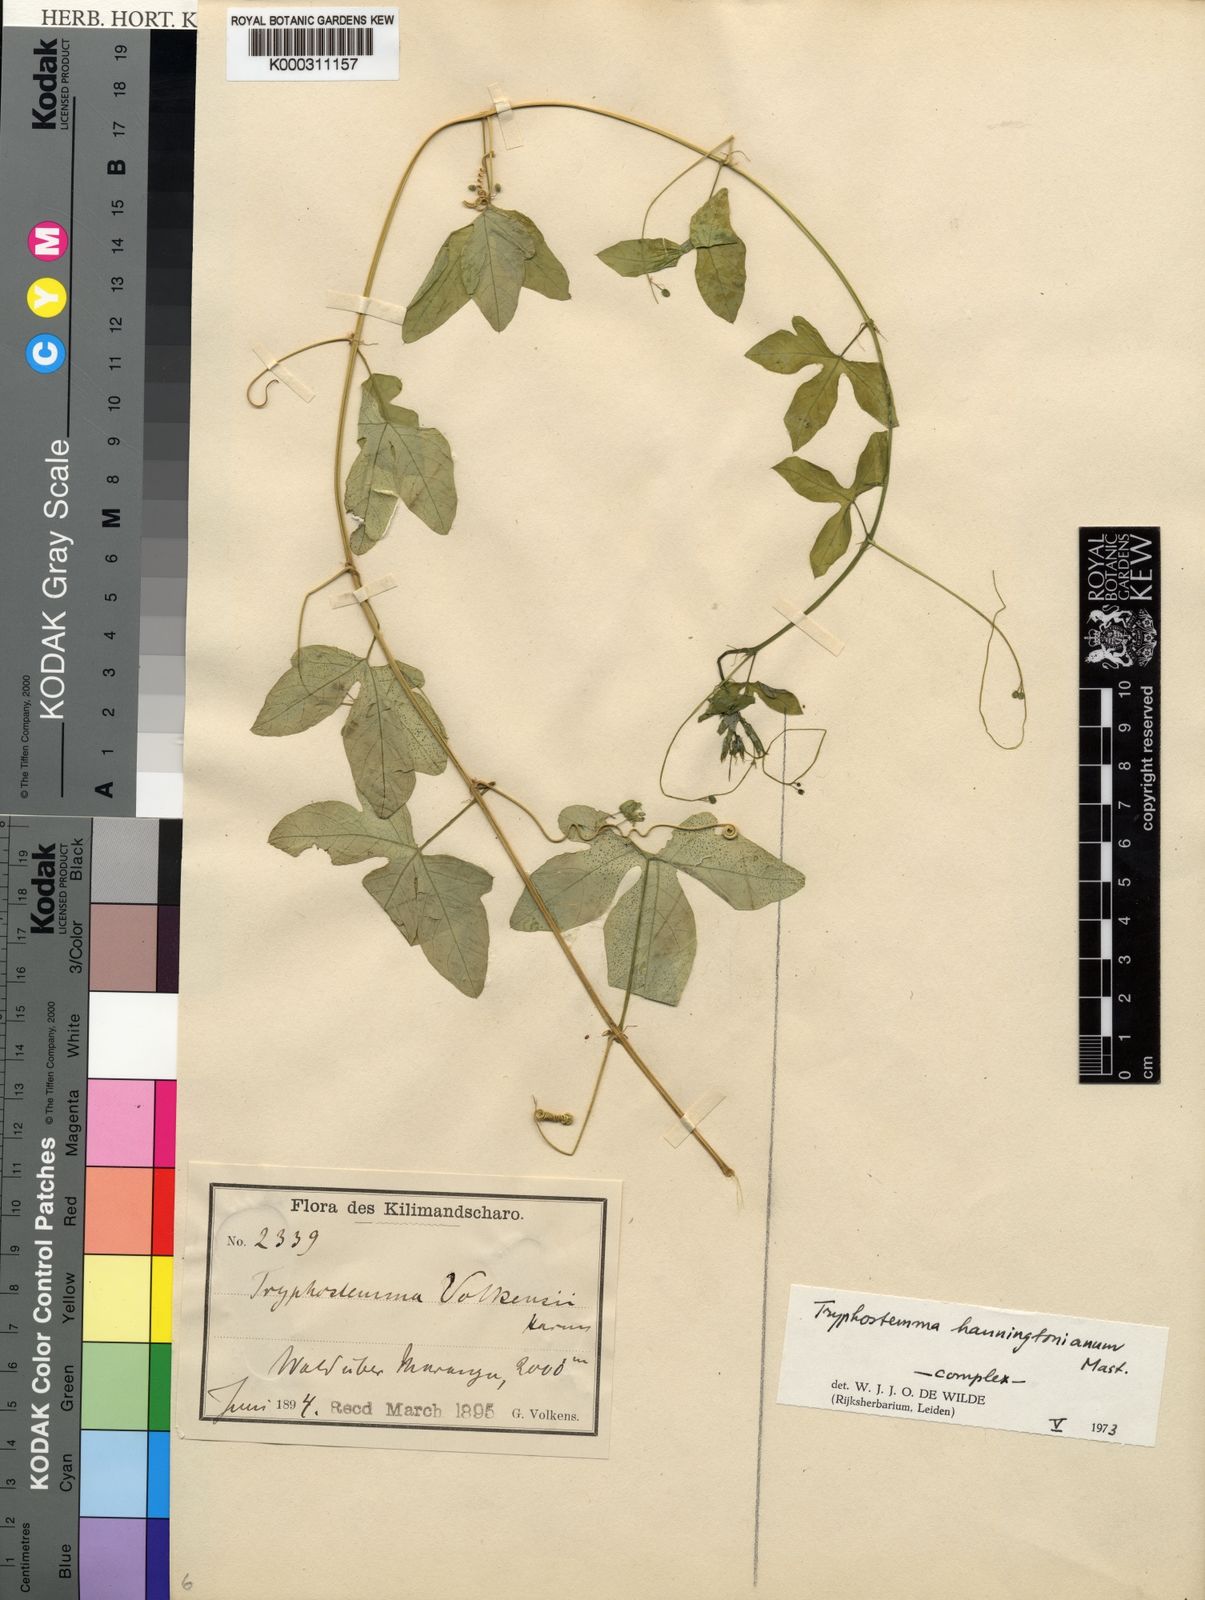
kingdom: Plantae
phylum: Tracheophyta
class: Magnoliopsida
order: Malpighiales
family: Passifloraceae
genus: Basananthe
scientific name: Basananthe
